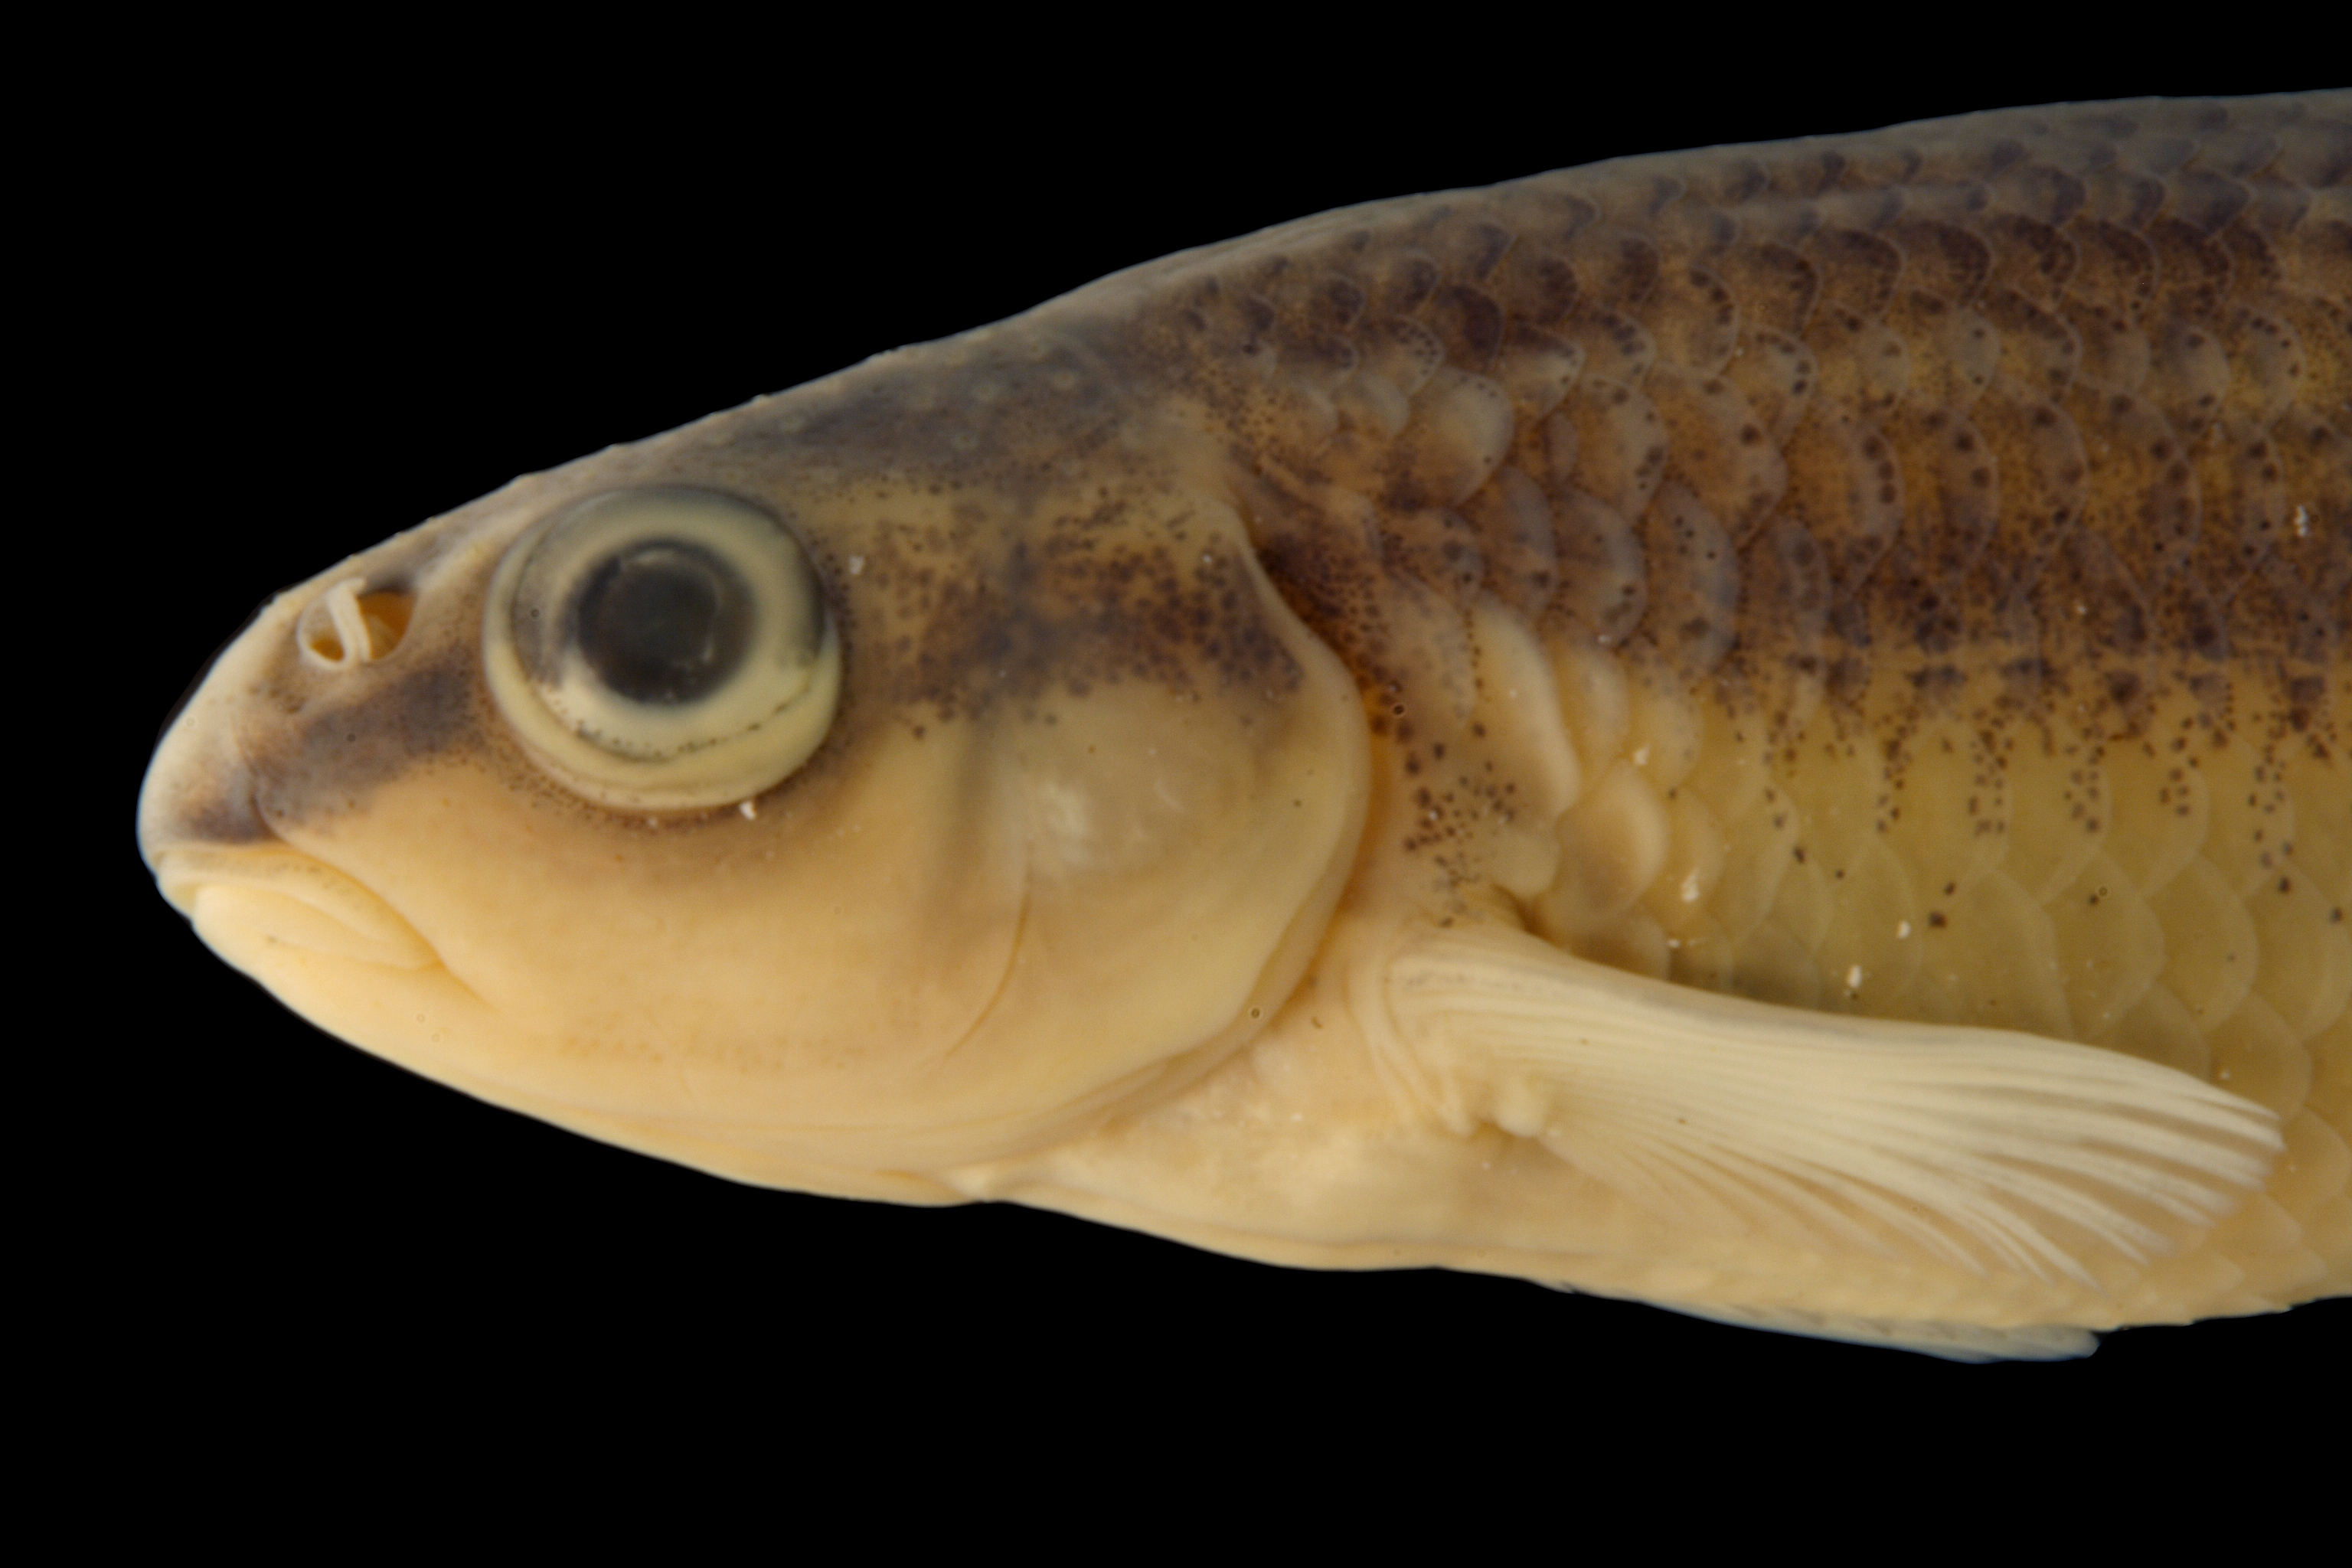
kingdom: Animalia
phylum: Chordata
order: Cypriniformes
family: Cyprinidae
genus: Dionda
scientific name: Dionda serena
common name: Nueces roundnose minnow
